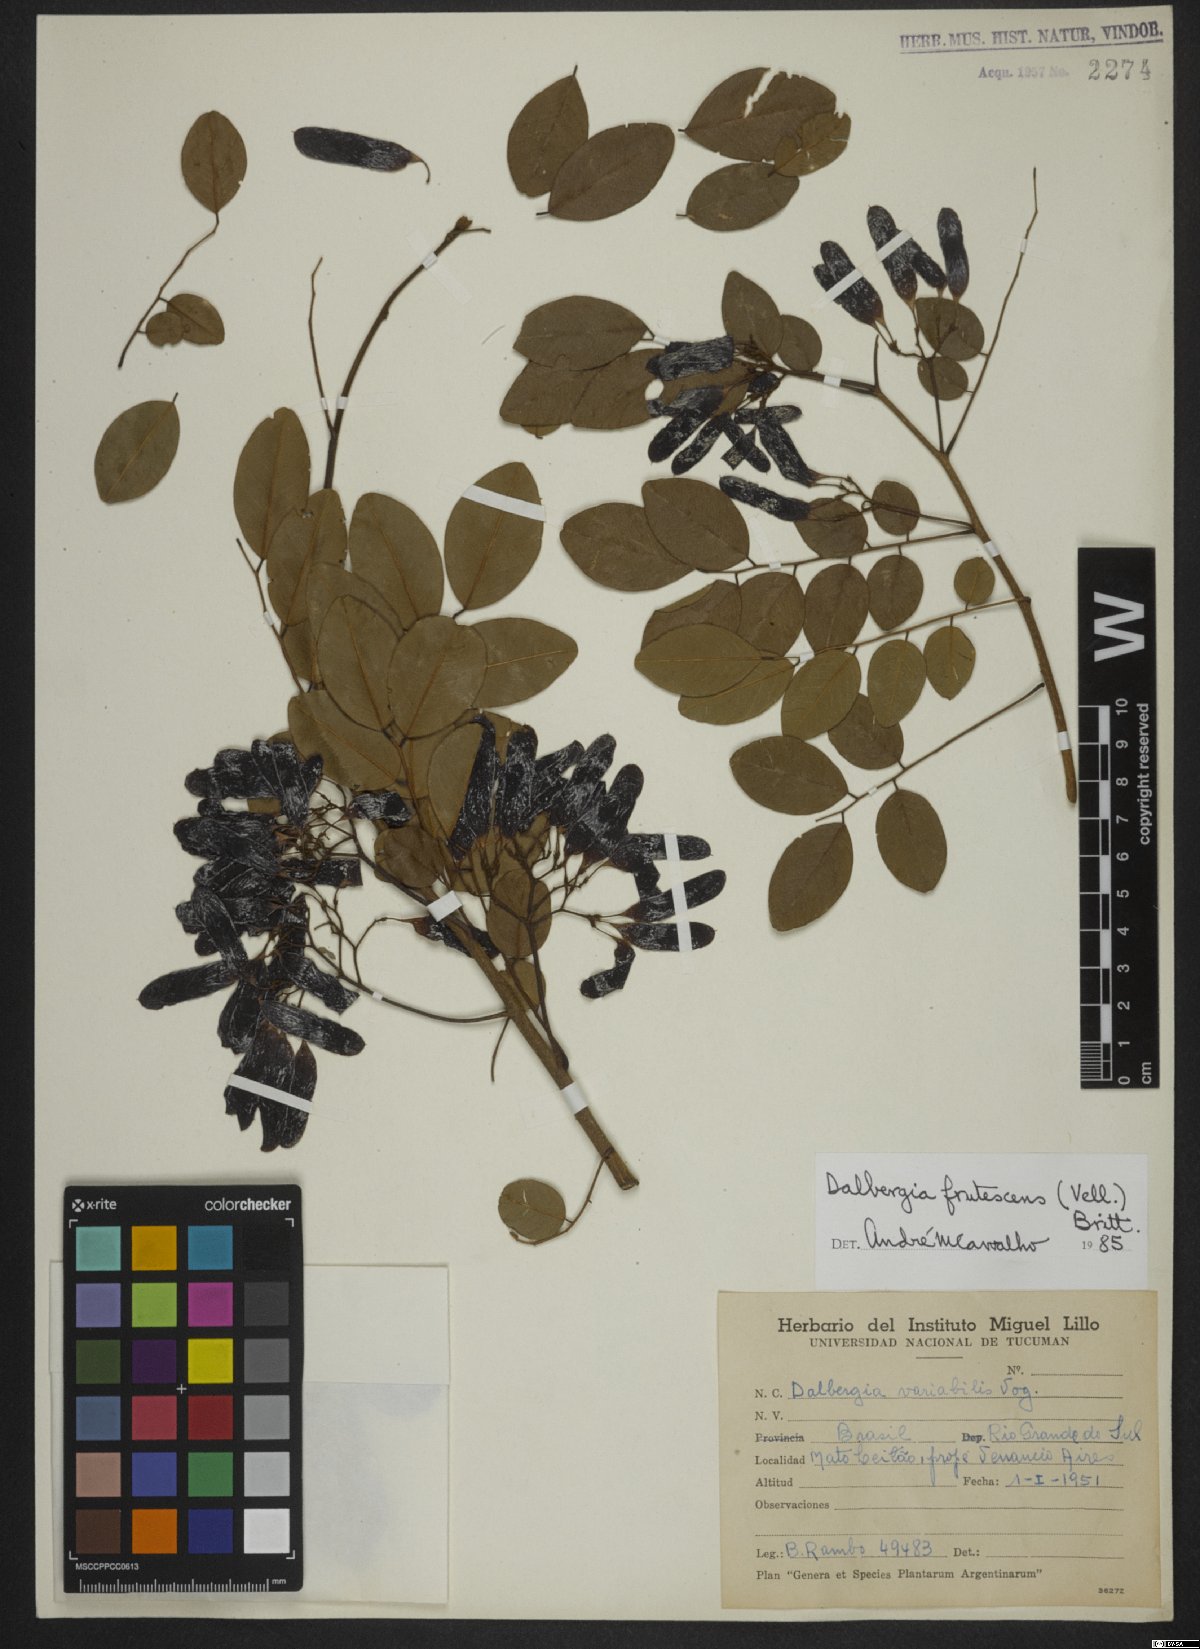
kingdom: Plantae
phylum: Tracheophyta
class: Magnoliopsida
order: Fabales
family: Fabaceae
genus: Dalbergia
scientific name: Dalbergia frutescens
